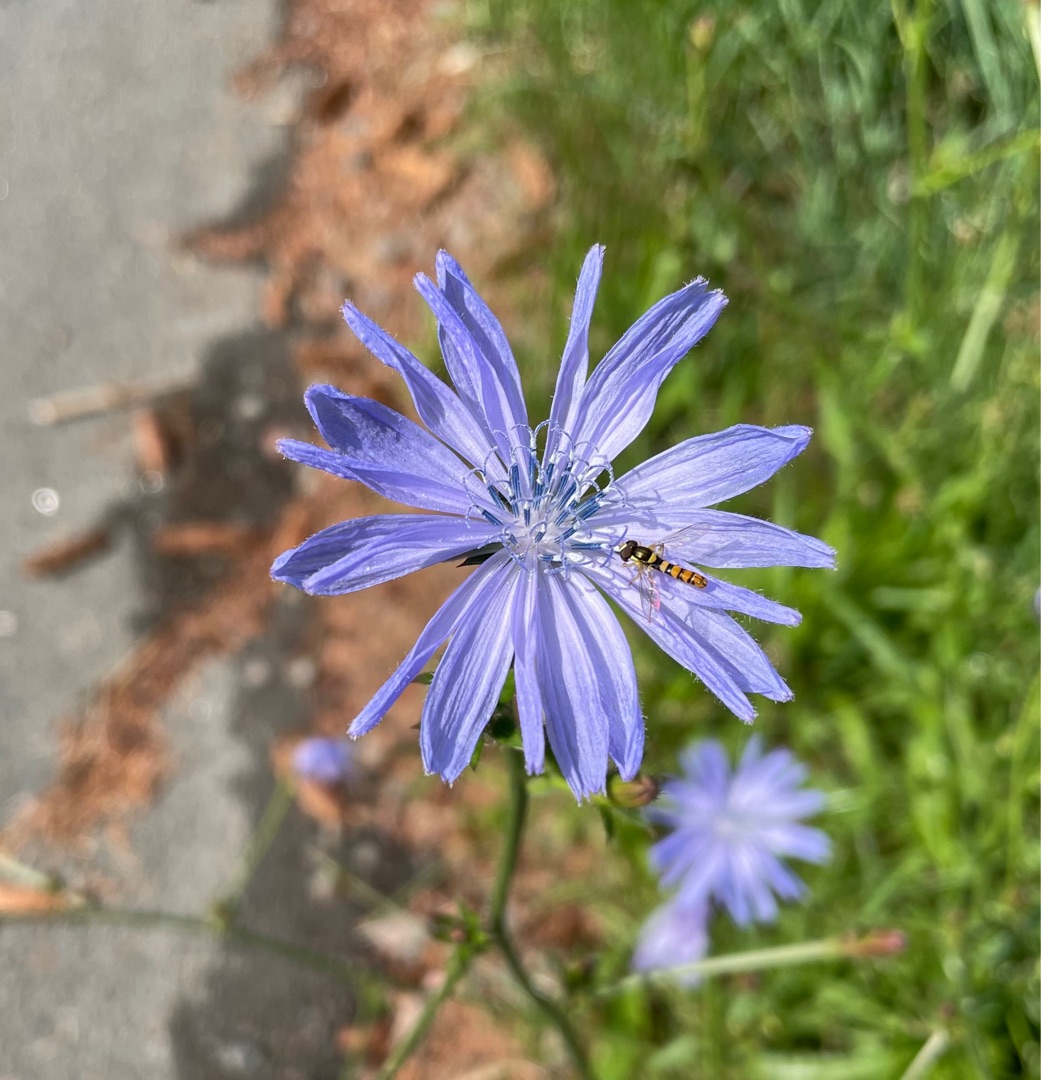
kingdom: Plantae
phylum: Tracheophyta
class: Magnoliopsida
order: Asterales
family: Asteraceae
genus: Cichorium
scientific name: Cichorium intybus
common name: Cikorie
